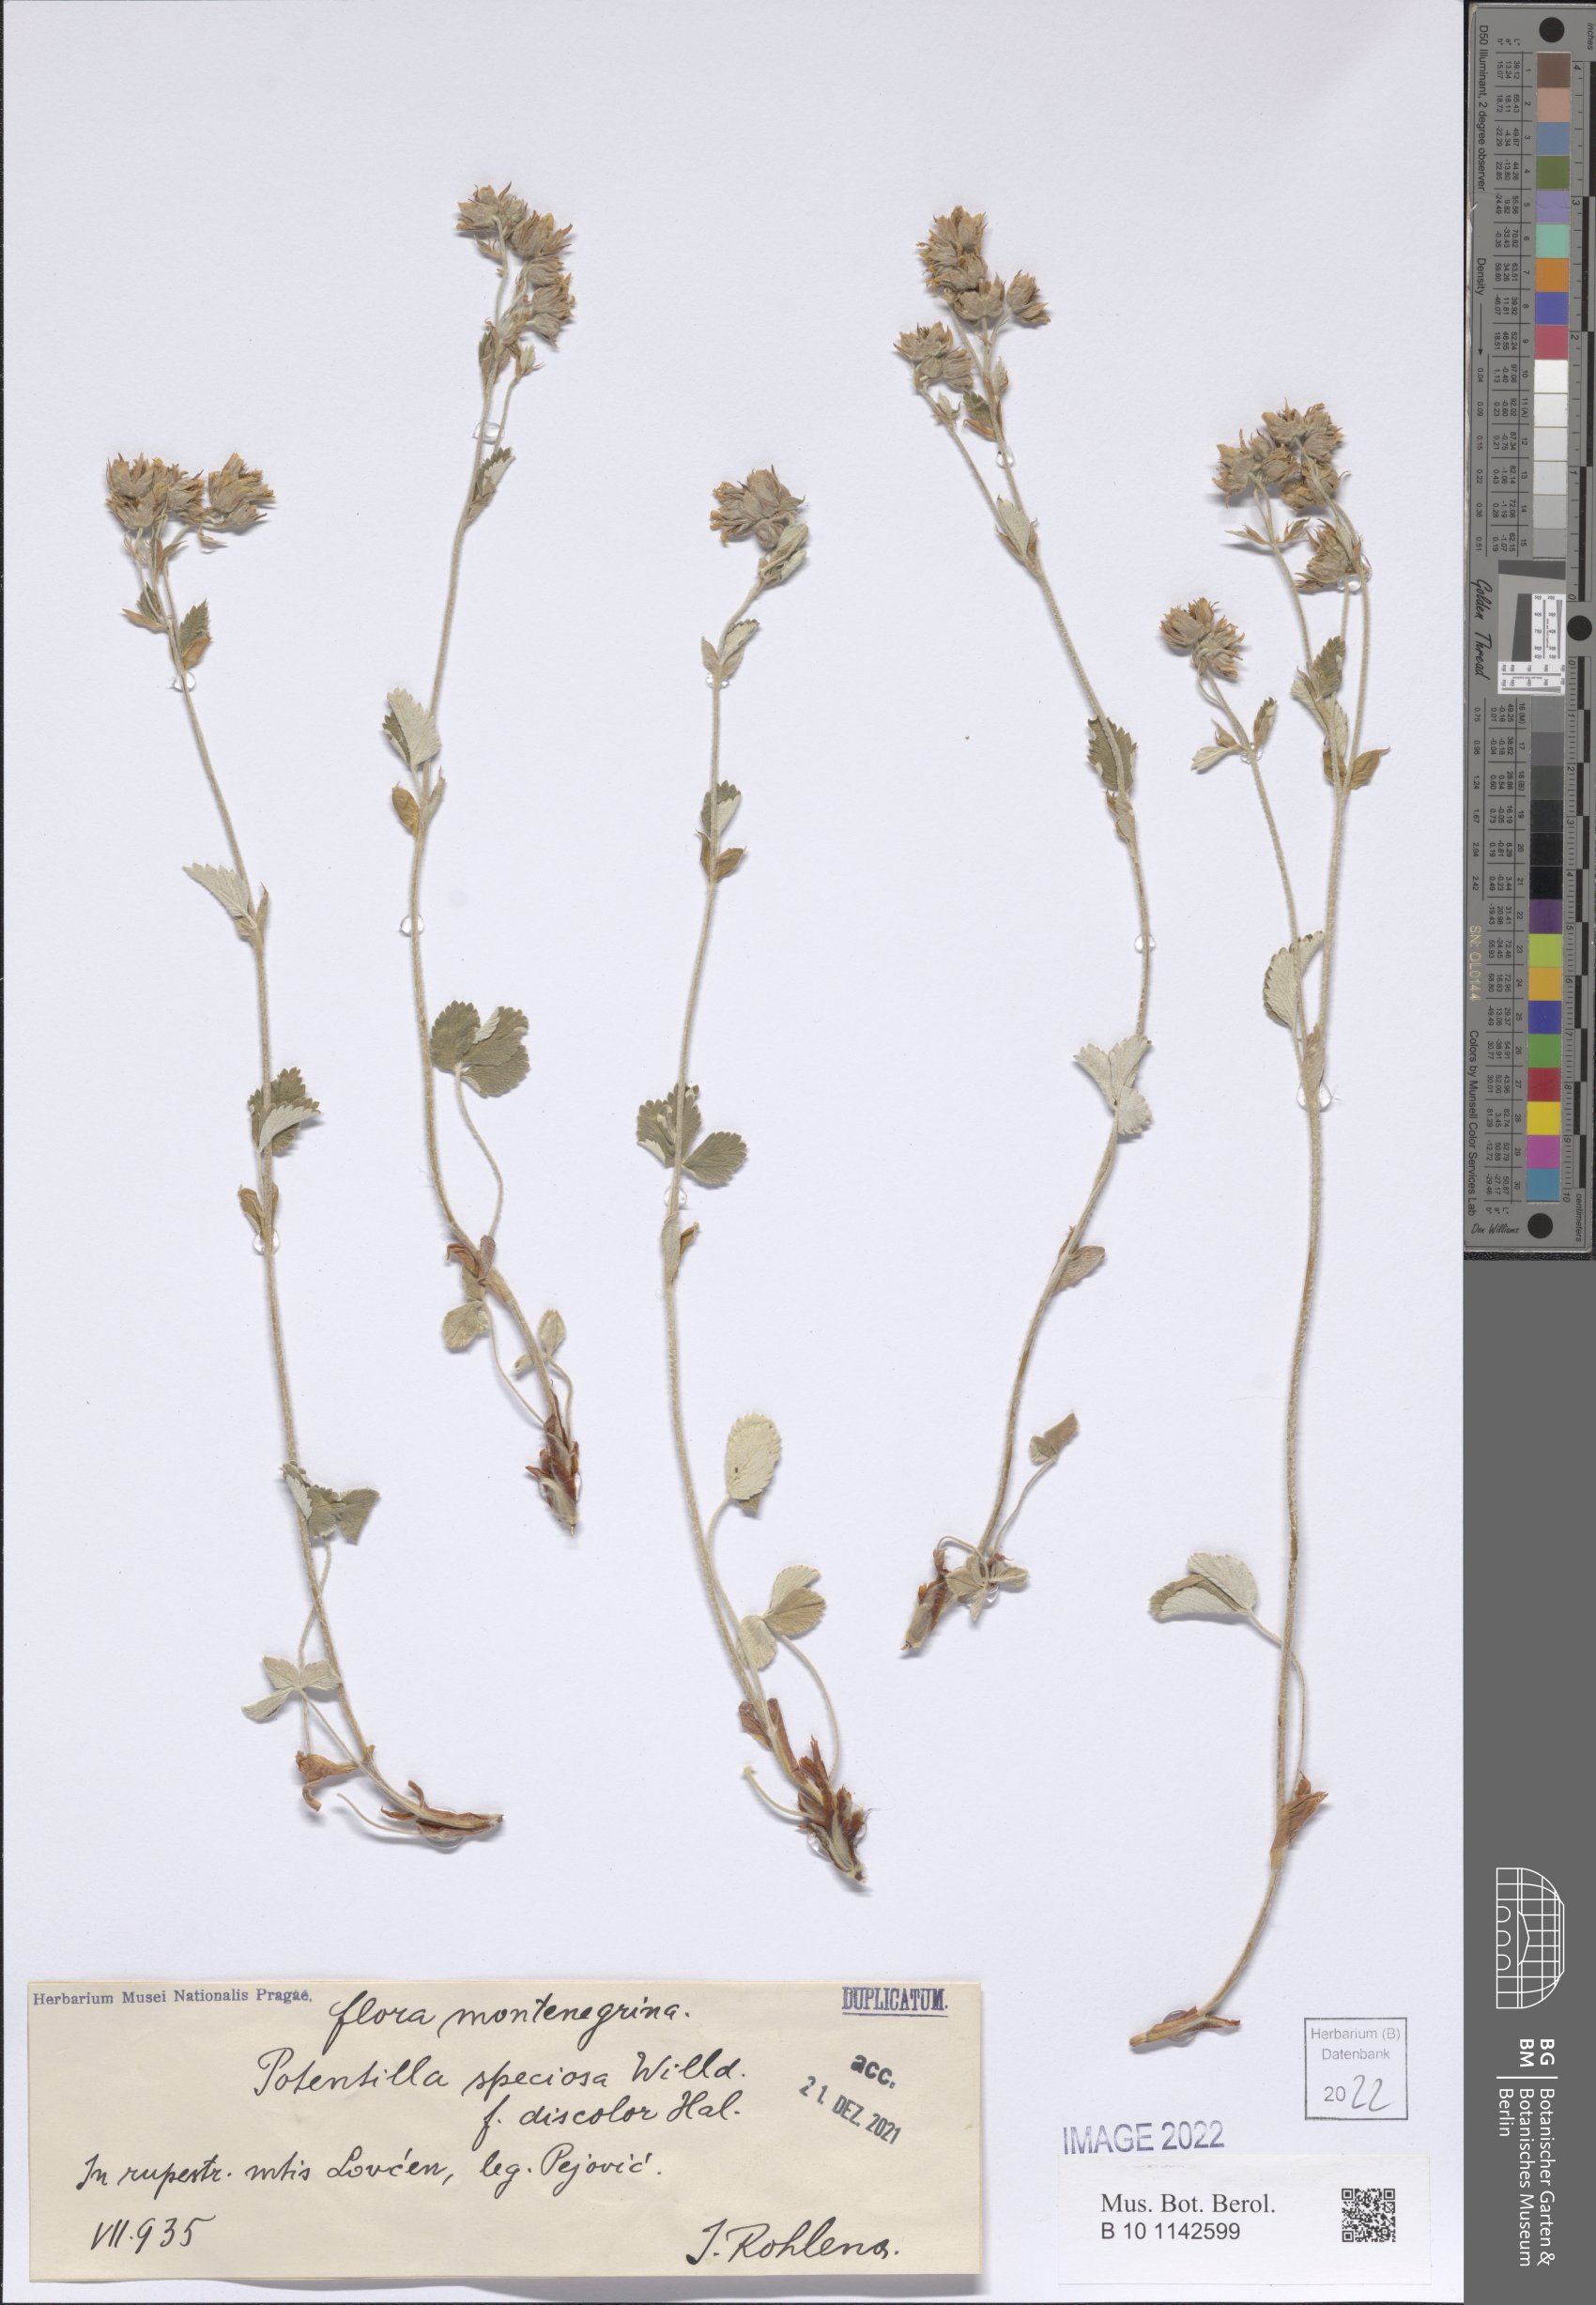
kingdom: Plantae
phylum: Tracheophyta
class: Magnoliopsida
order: Rosales
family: Rosaceae
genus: Potentilla
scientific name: Potentilla speciosa
